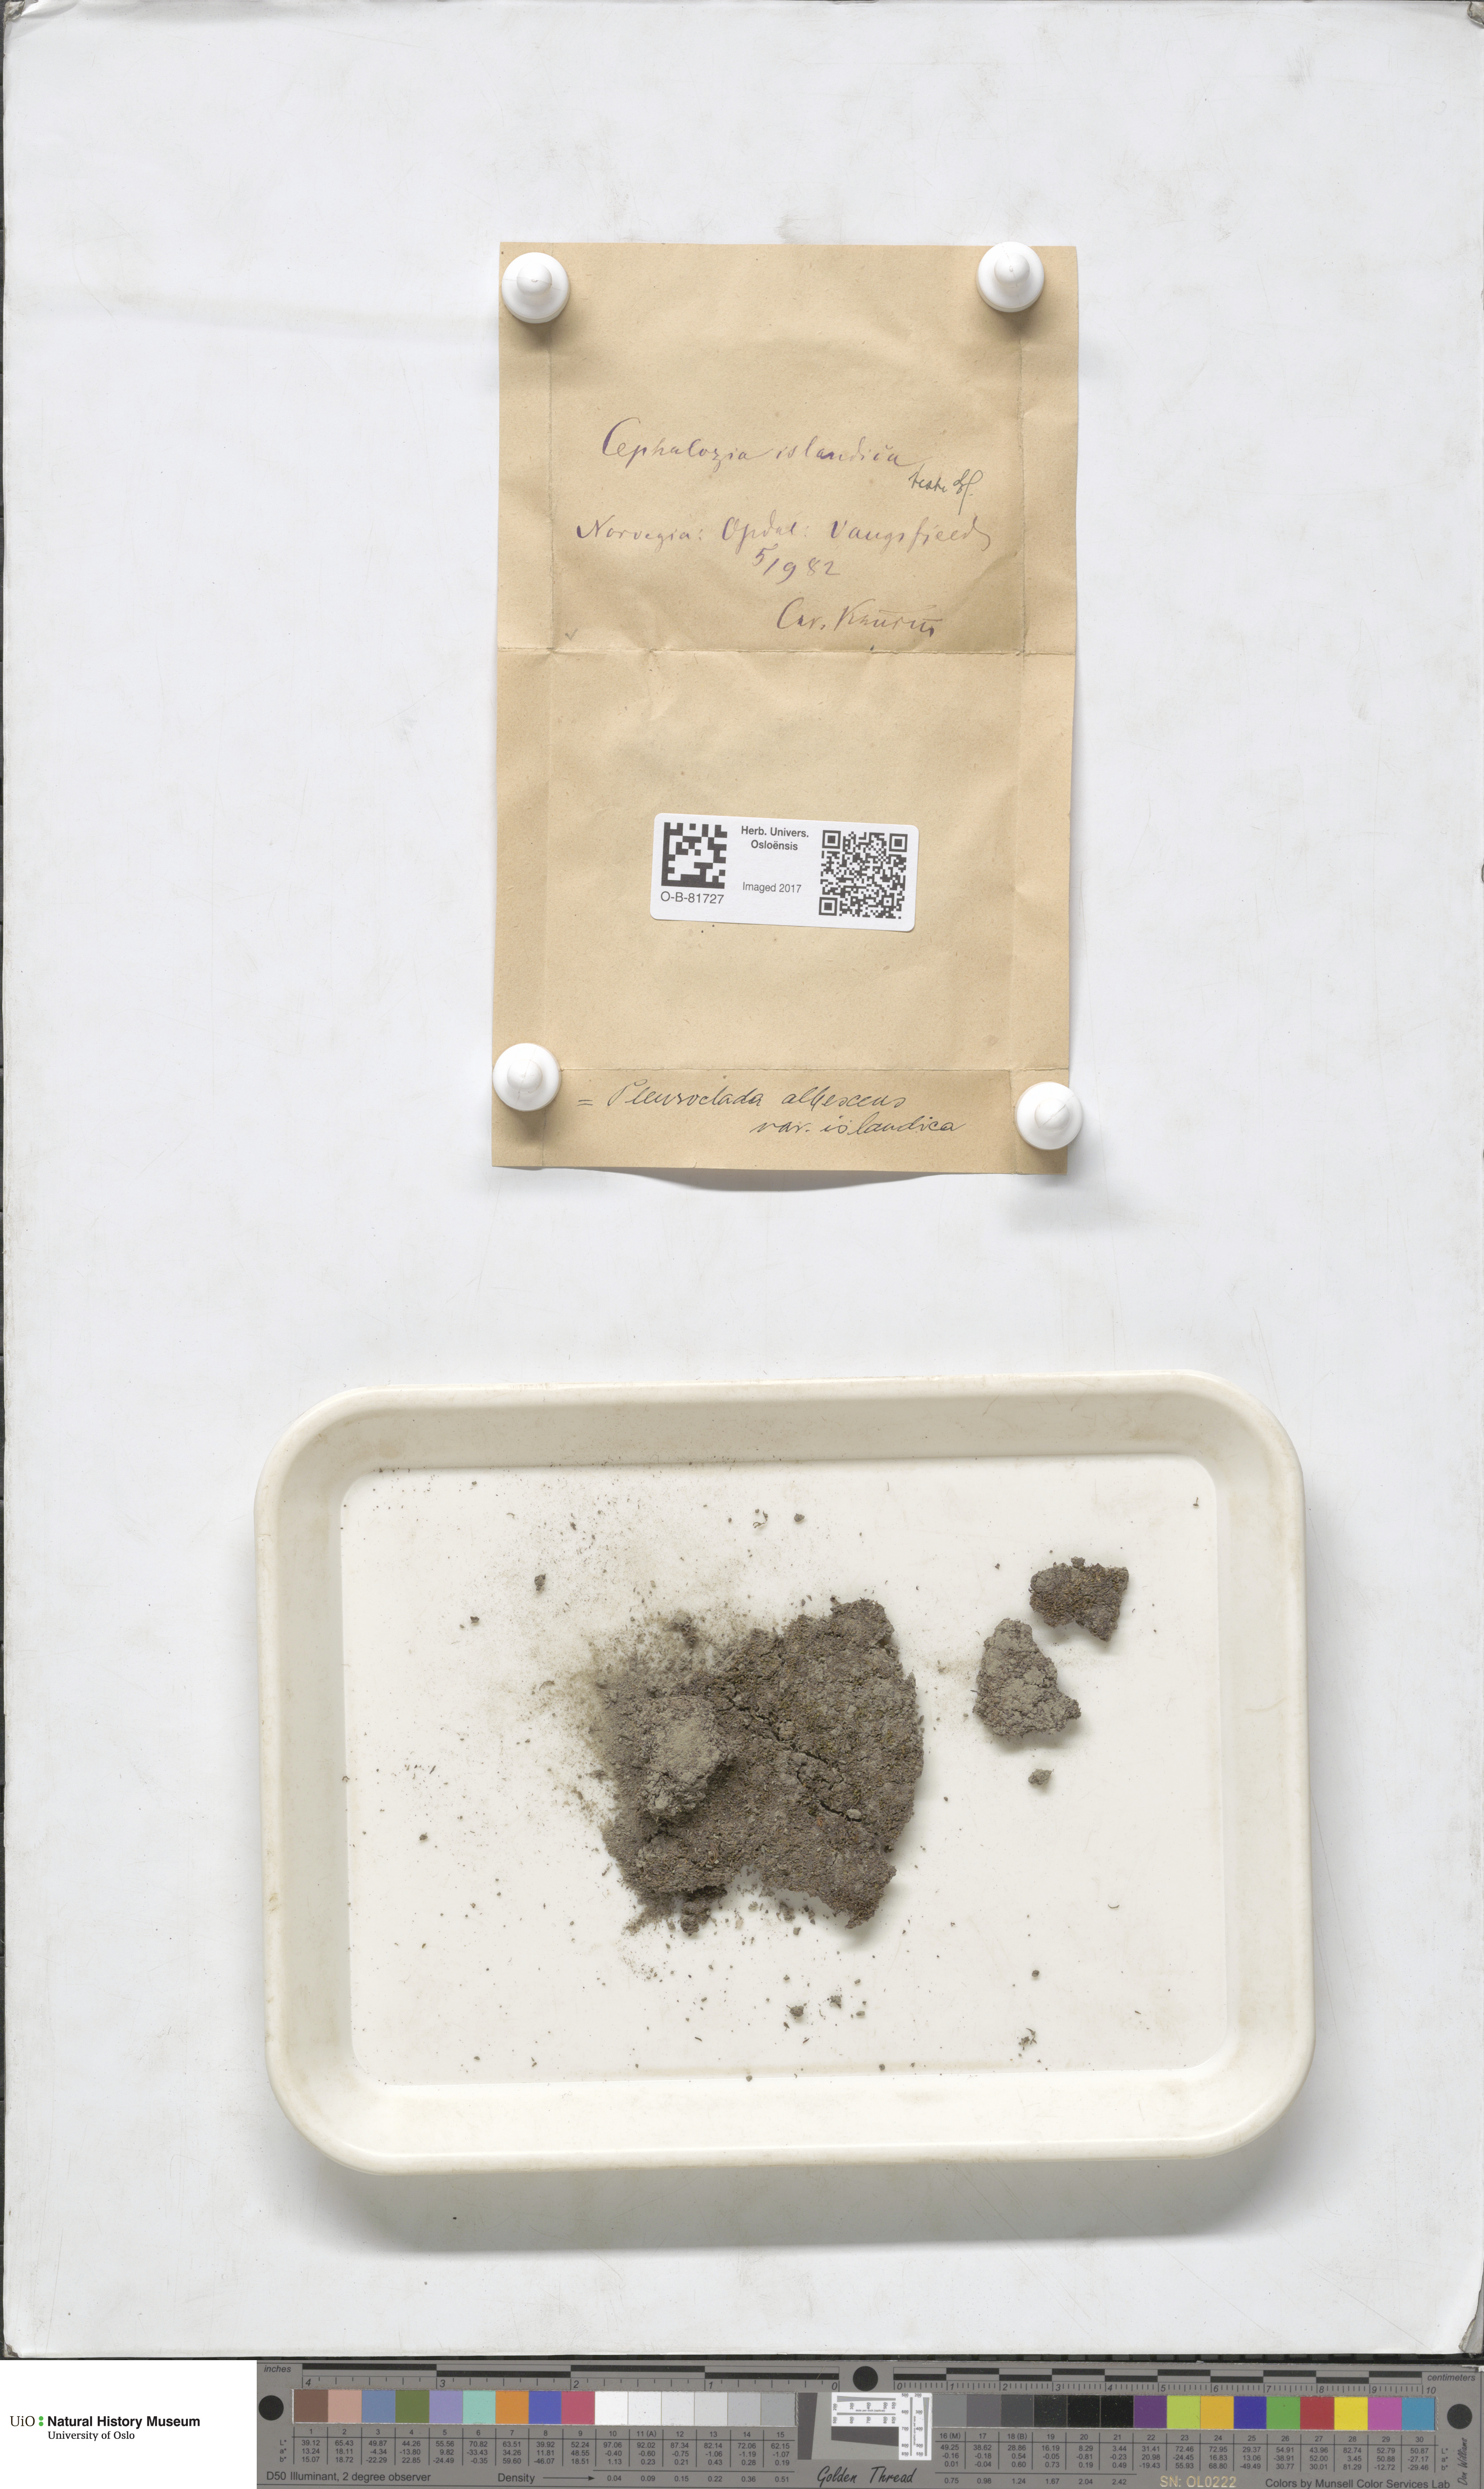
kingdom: Plantae
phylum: Marchantiophyta
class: Jungermanniopsida
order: Jungermanniales
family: Cephaloziaceae
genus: Fuscocephaloziopsis
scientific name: Fuscocephaloziopsis albescens
